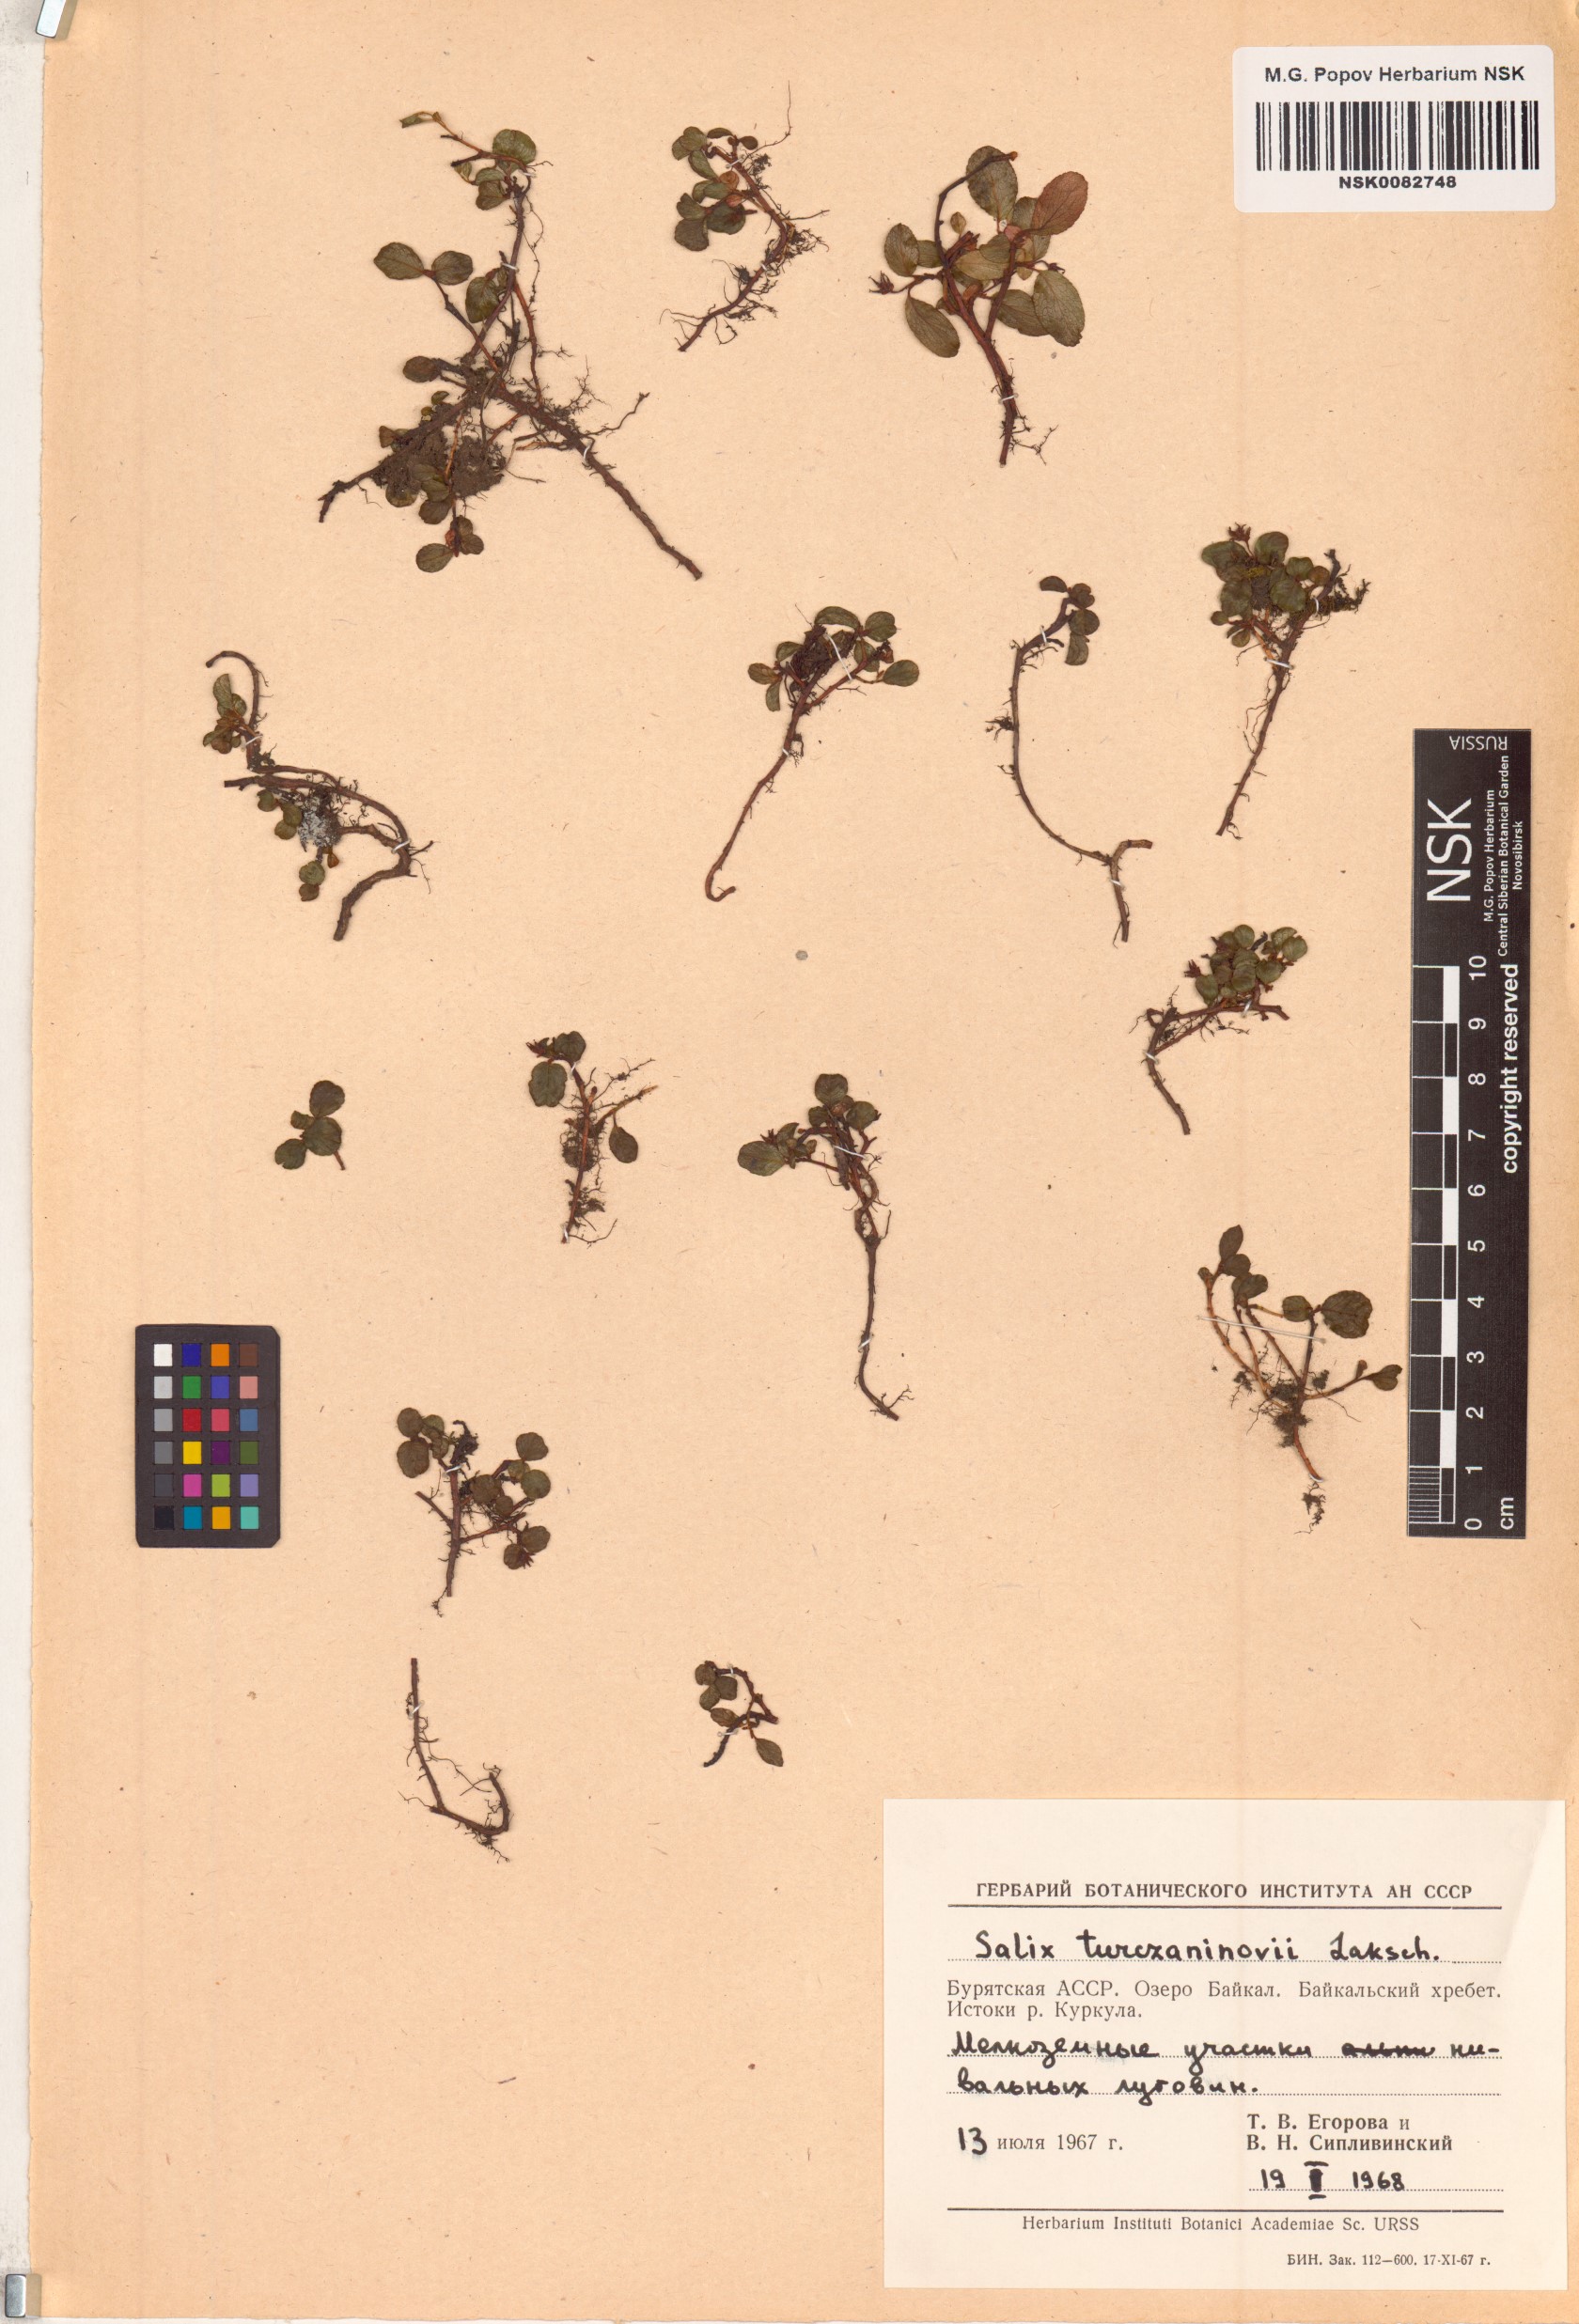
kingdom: Plantae
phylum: Tracheophyta
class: Magnoliopsida
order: Malpighiales
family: Salicaceae
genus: Salix
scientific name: Salix turczaninowii
